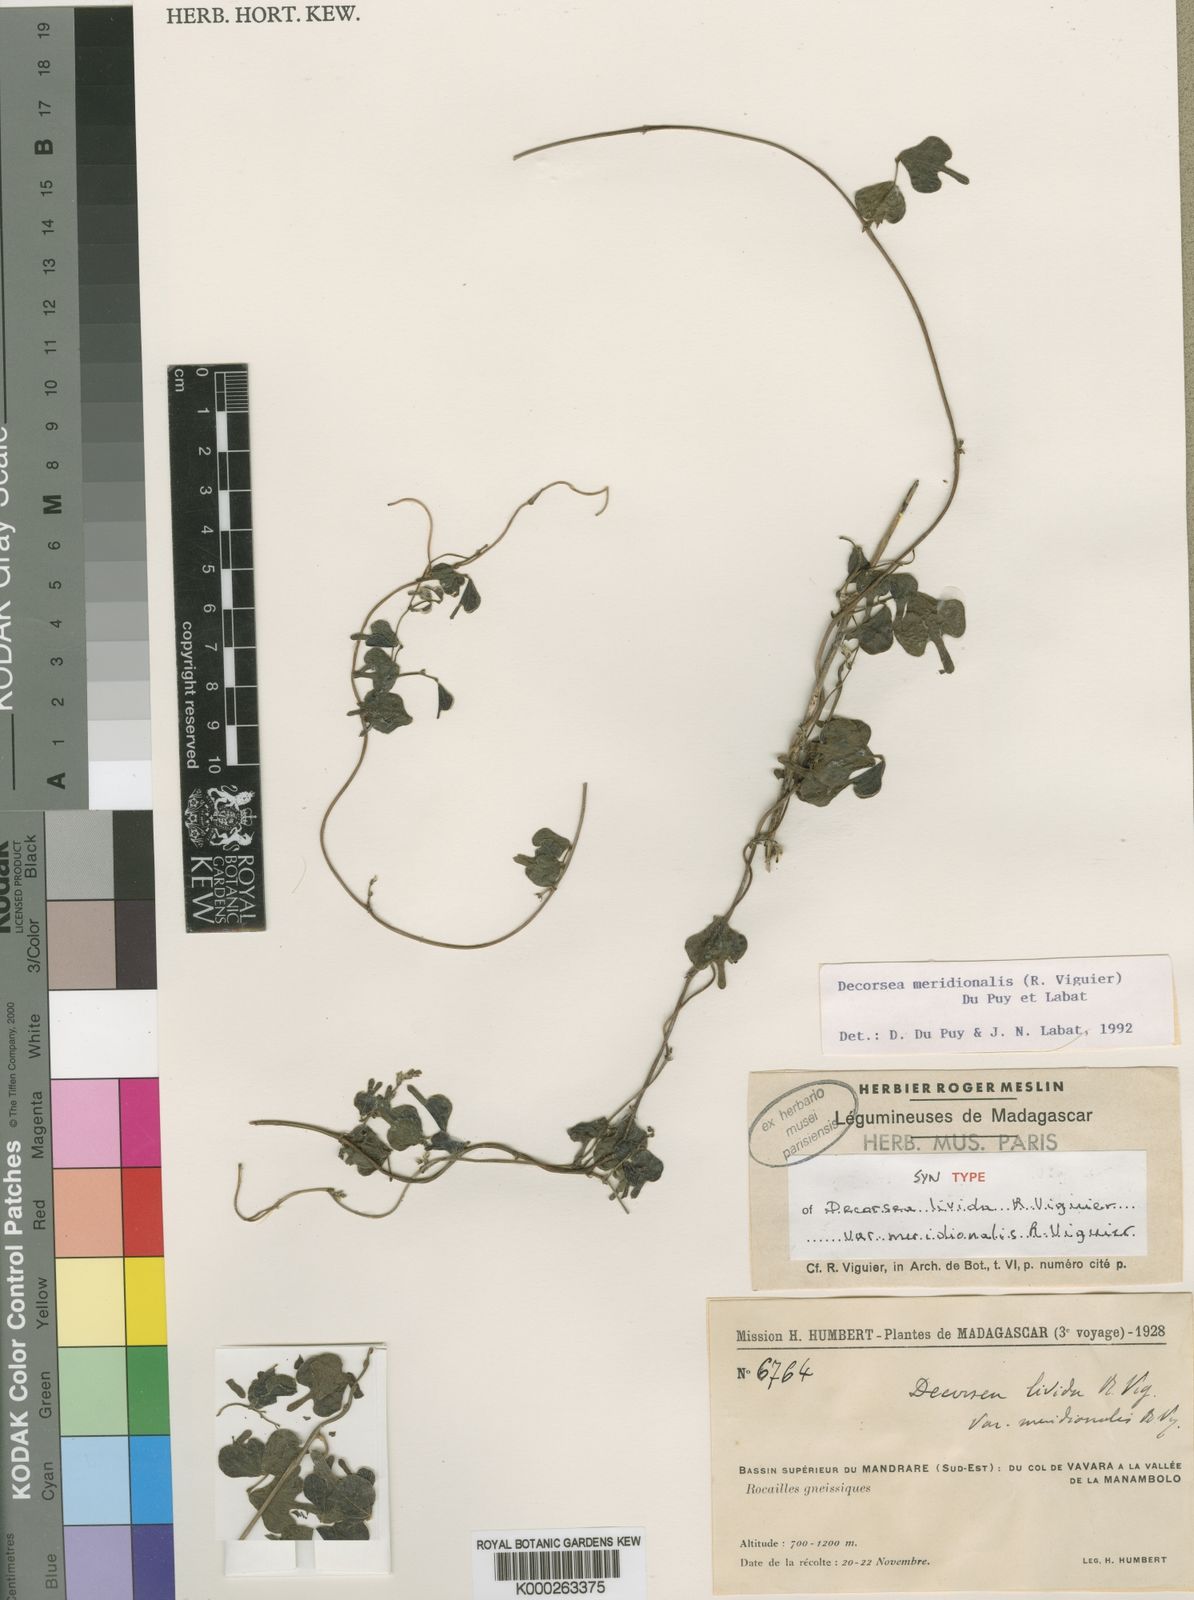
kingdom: Plantae
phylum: Tracheophyta
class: Magnoliopsida
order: Fabales
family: Fabaceae
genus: Decorsea
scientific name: Decorsea meridionalis
